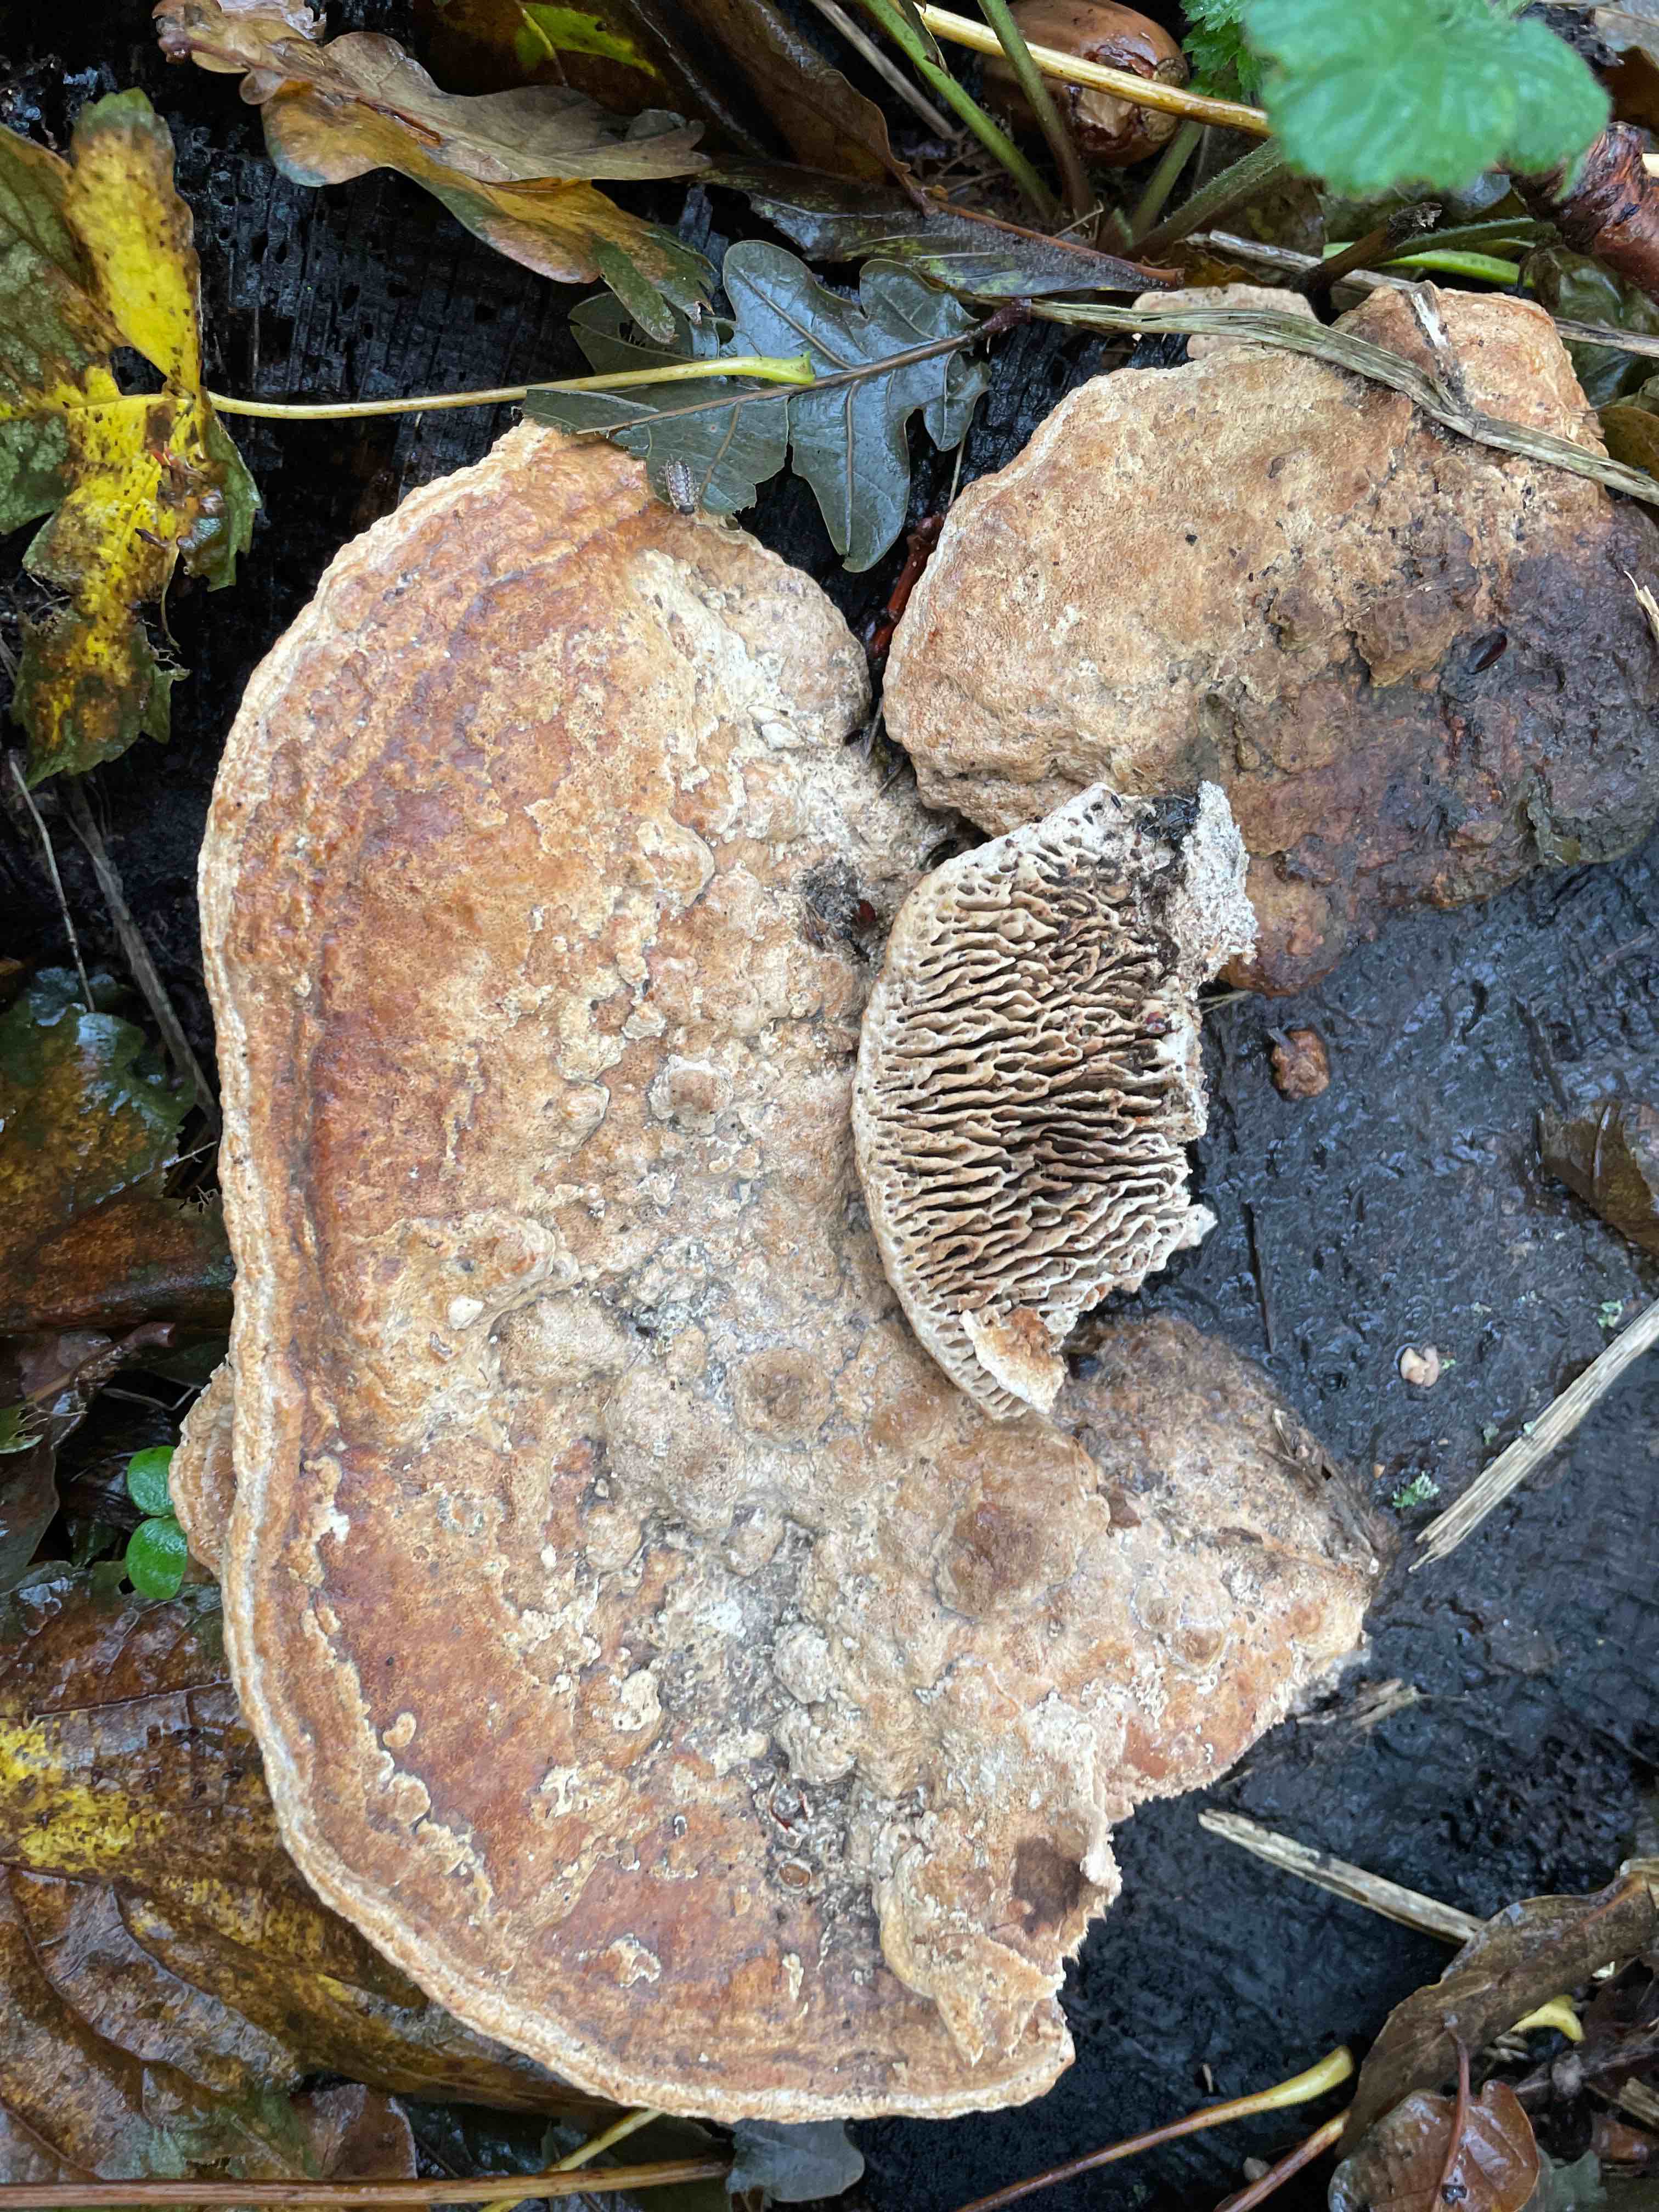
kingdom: Fungi
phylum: Basidiomycota
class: Agaricomycetes
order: Polyporales
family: Fomitopsidaceae
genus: Daedalea
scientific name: Daedalea quercina
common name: ege-labyrintsvamp
